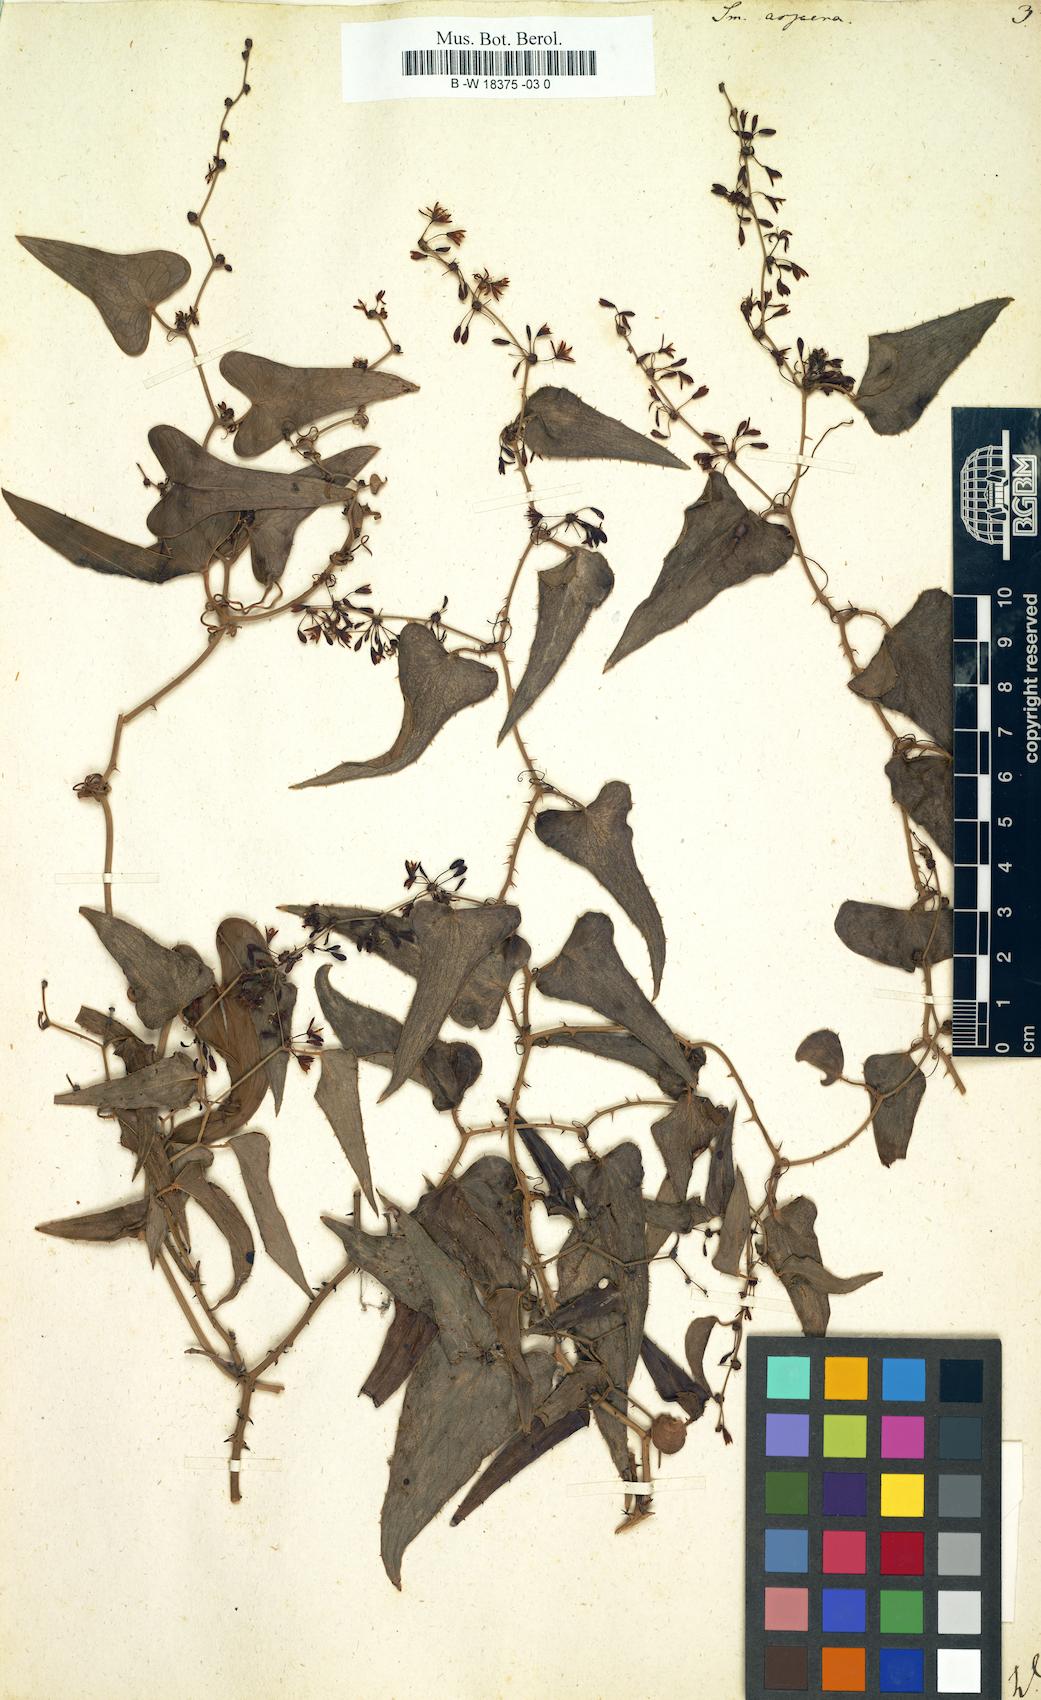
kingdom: Plantae
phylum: Tracheophyta
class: Liliopsida
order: Liliales
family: Smilacaceae
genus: Smilax
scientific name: Smilax aspera
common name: Common smilax
